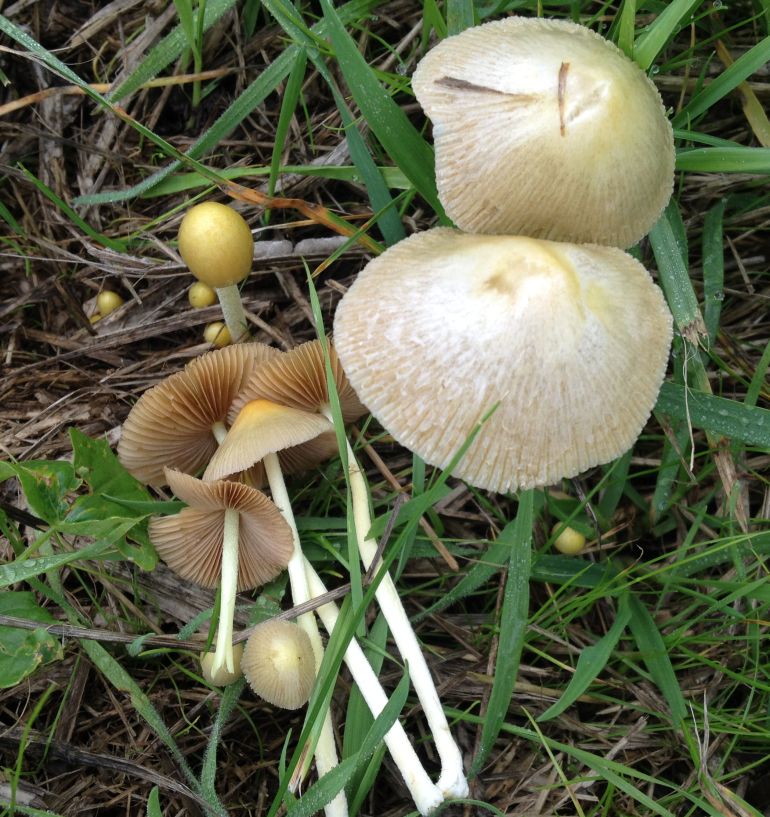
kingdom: Fungi
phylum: Basidiomycota
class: Agaricomycetes
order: Agaricales
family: Bolbitiaceae
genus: Bolbitius
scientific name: Bolbitius titubans
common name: almindelig gulhat
